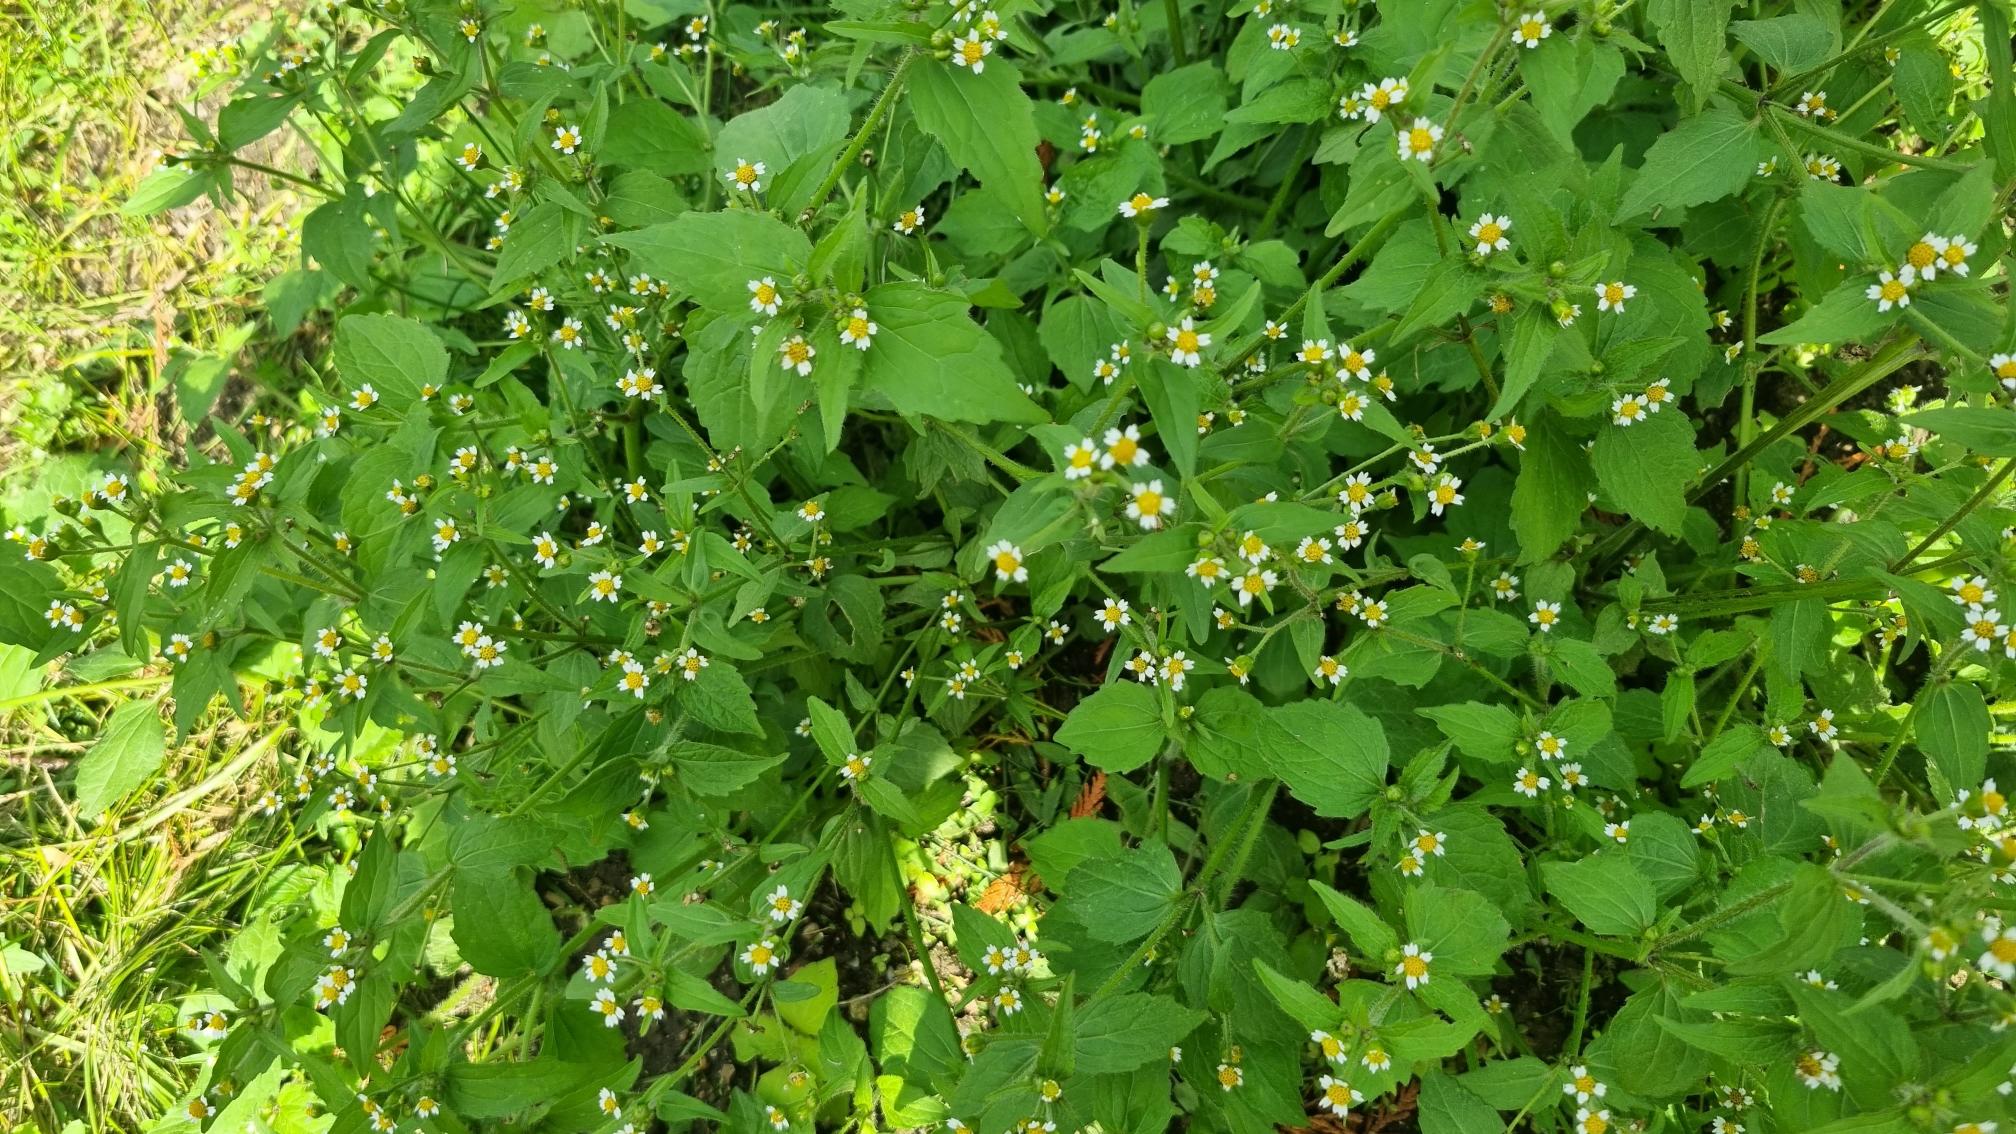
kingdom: Plantae
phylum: Tracheophyta
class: Magnoliopsida
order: Asterales
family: Asteraceae
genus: Galinsoga
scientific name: Galinsoga quadriradiata
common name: Kirtel-kortstråle
